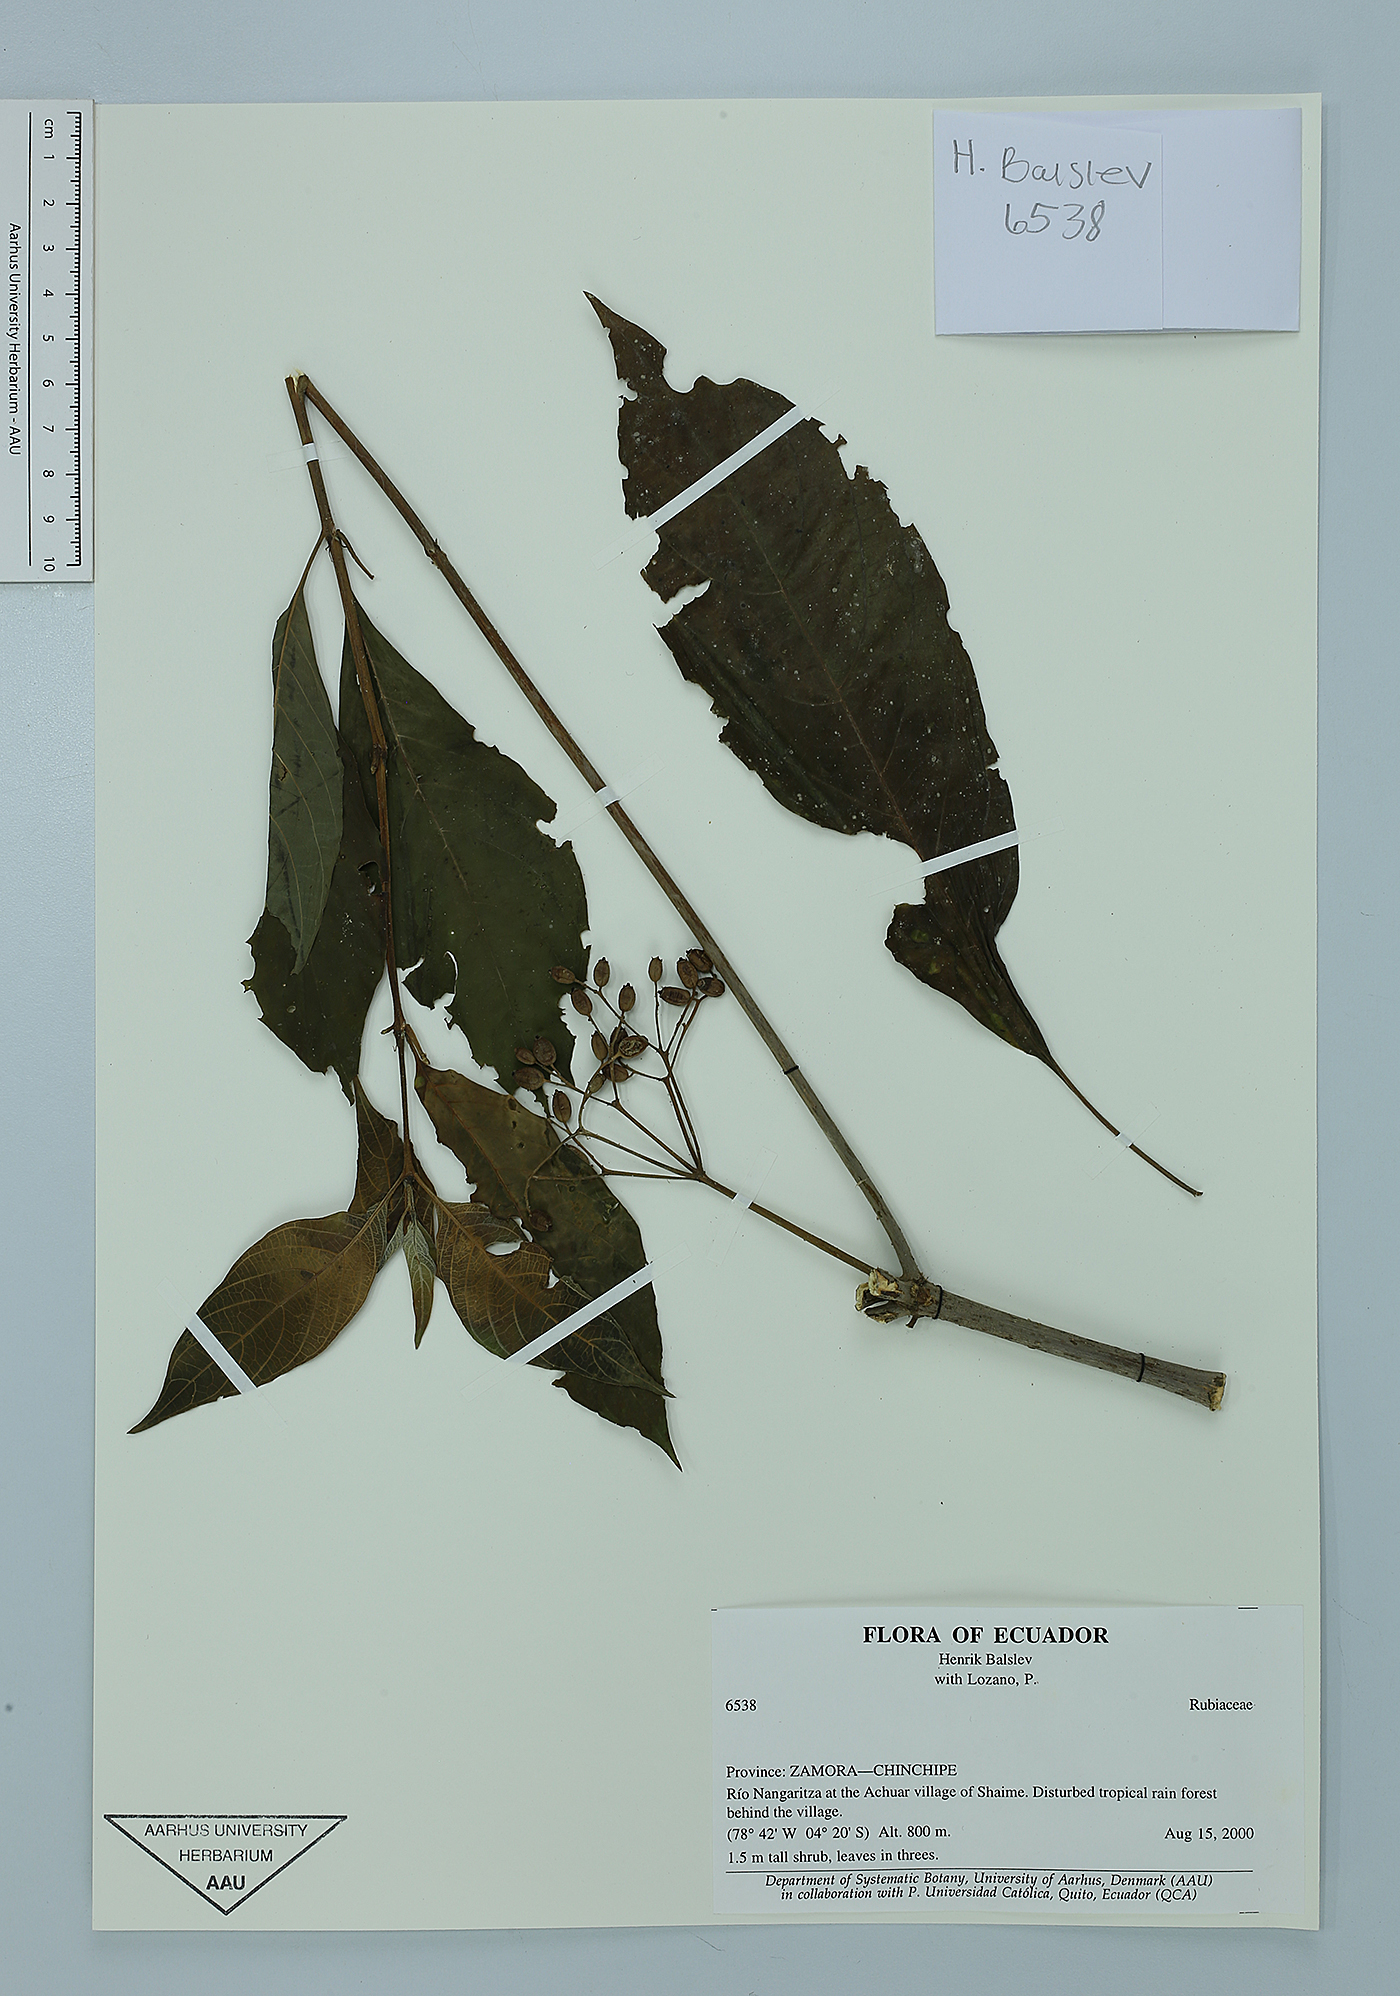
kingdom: Plantae
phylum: Tracheophyta
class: Magnoliopsida
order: Gentianales
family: Rubiaceae
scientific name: Rubiaceae
